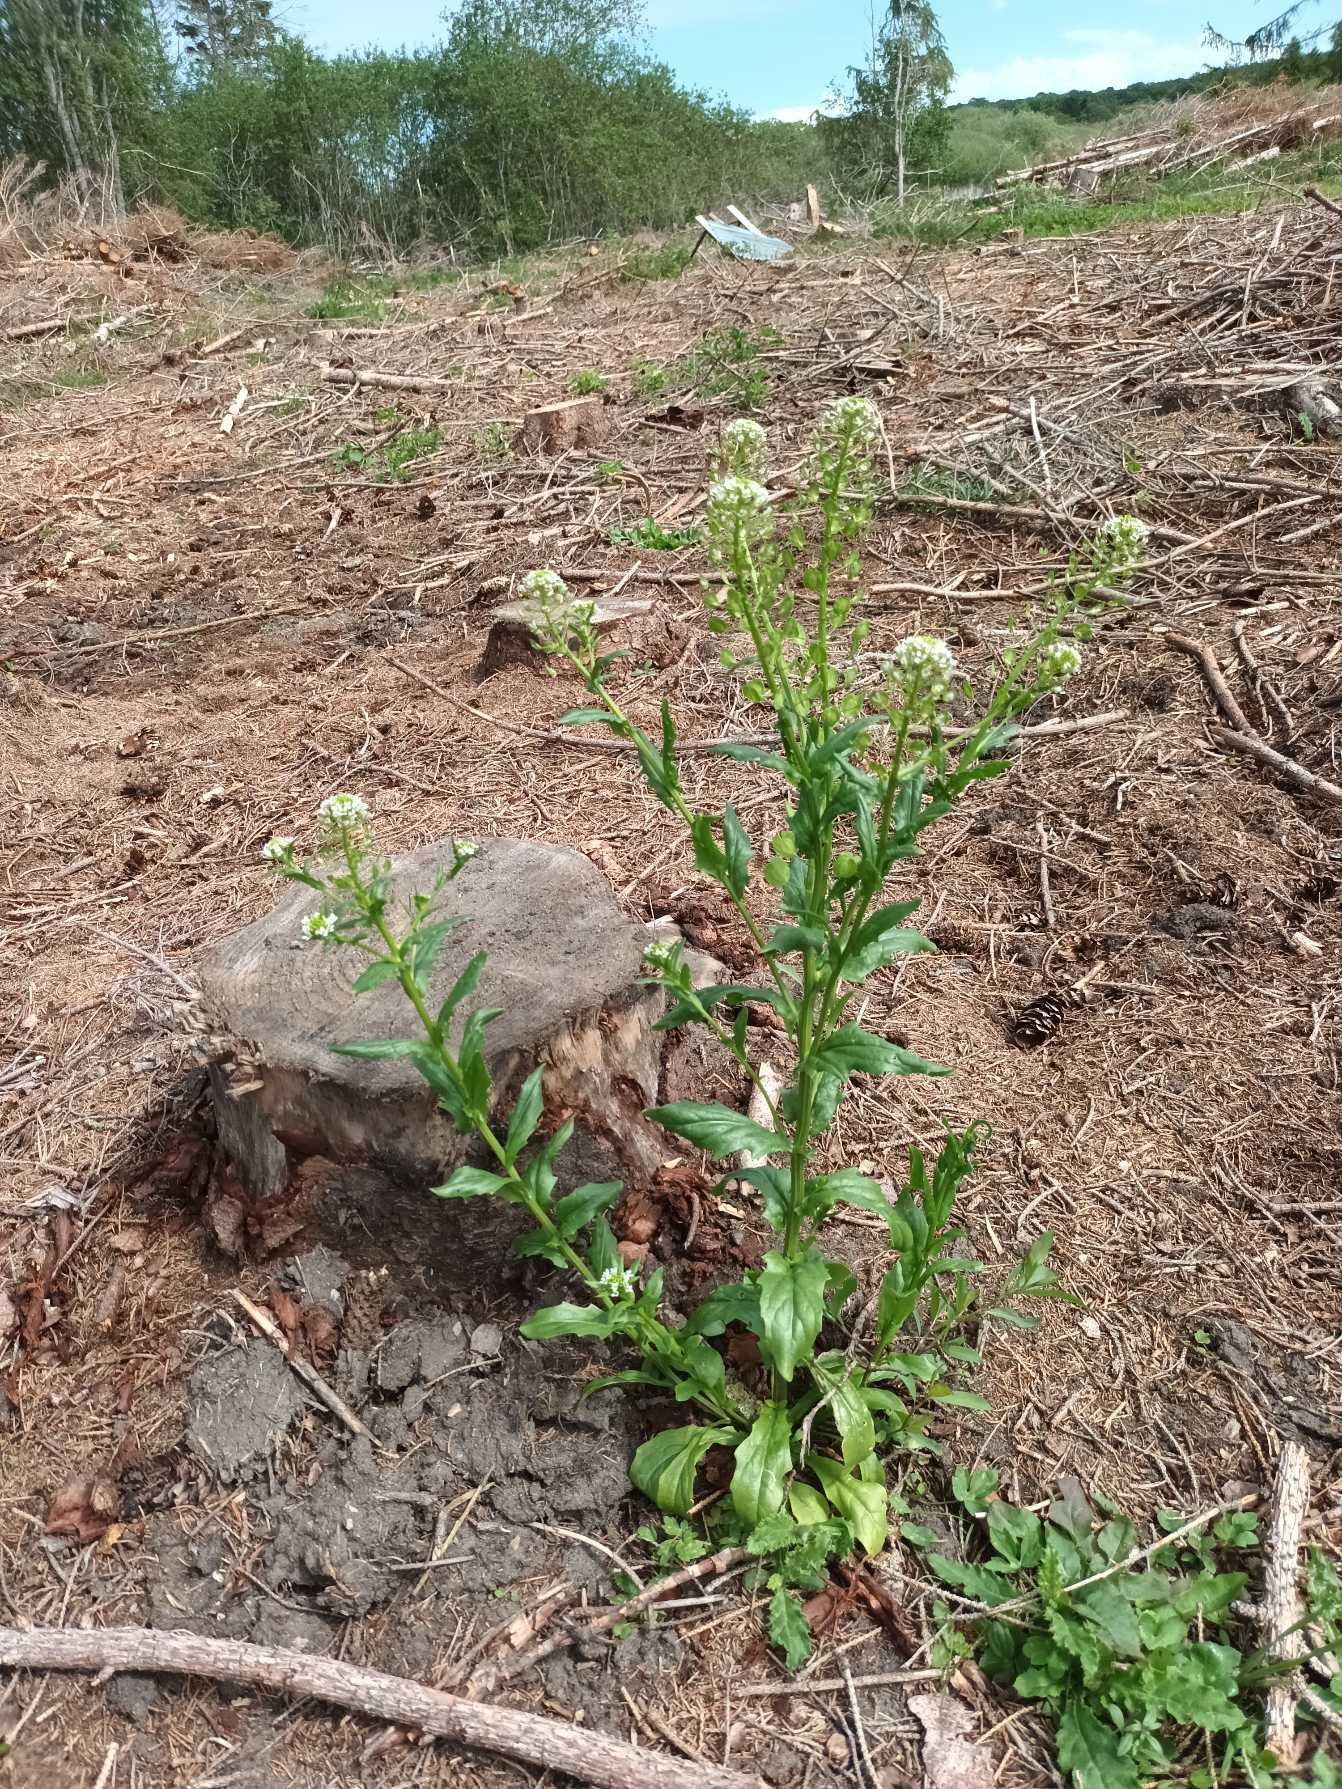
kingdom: Plantae
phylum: Tracheophyta
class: Magnoliopsida
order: Brassicales
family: Brassicaceae
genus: Thlaspi
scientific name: Thlaspi arvense
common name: Almindelig pengeurt
